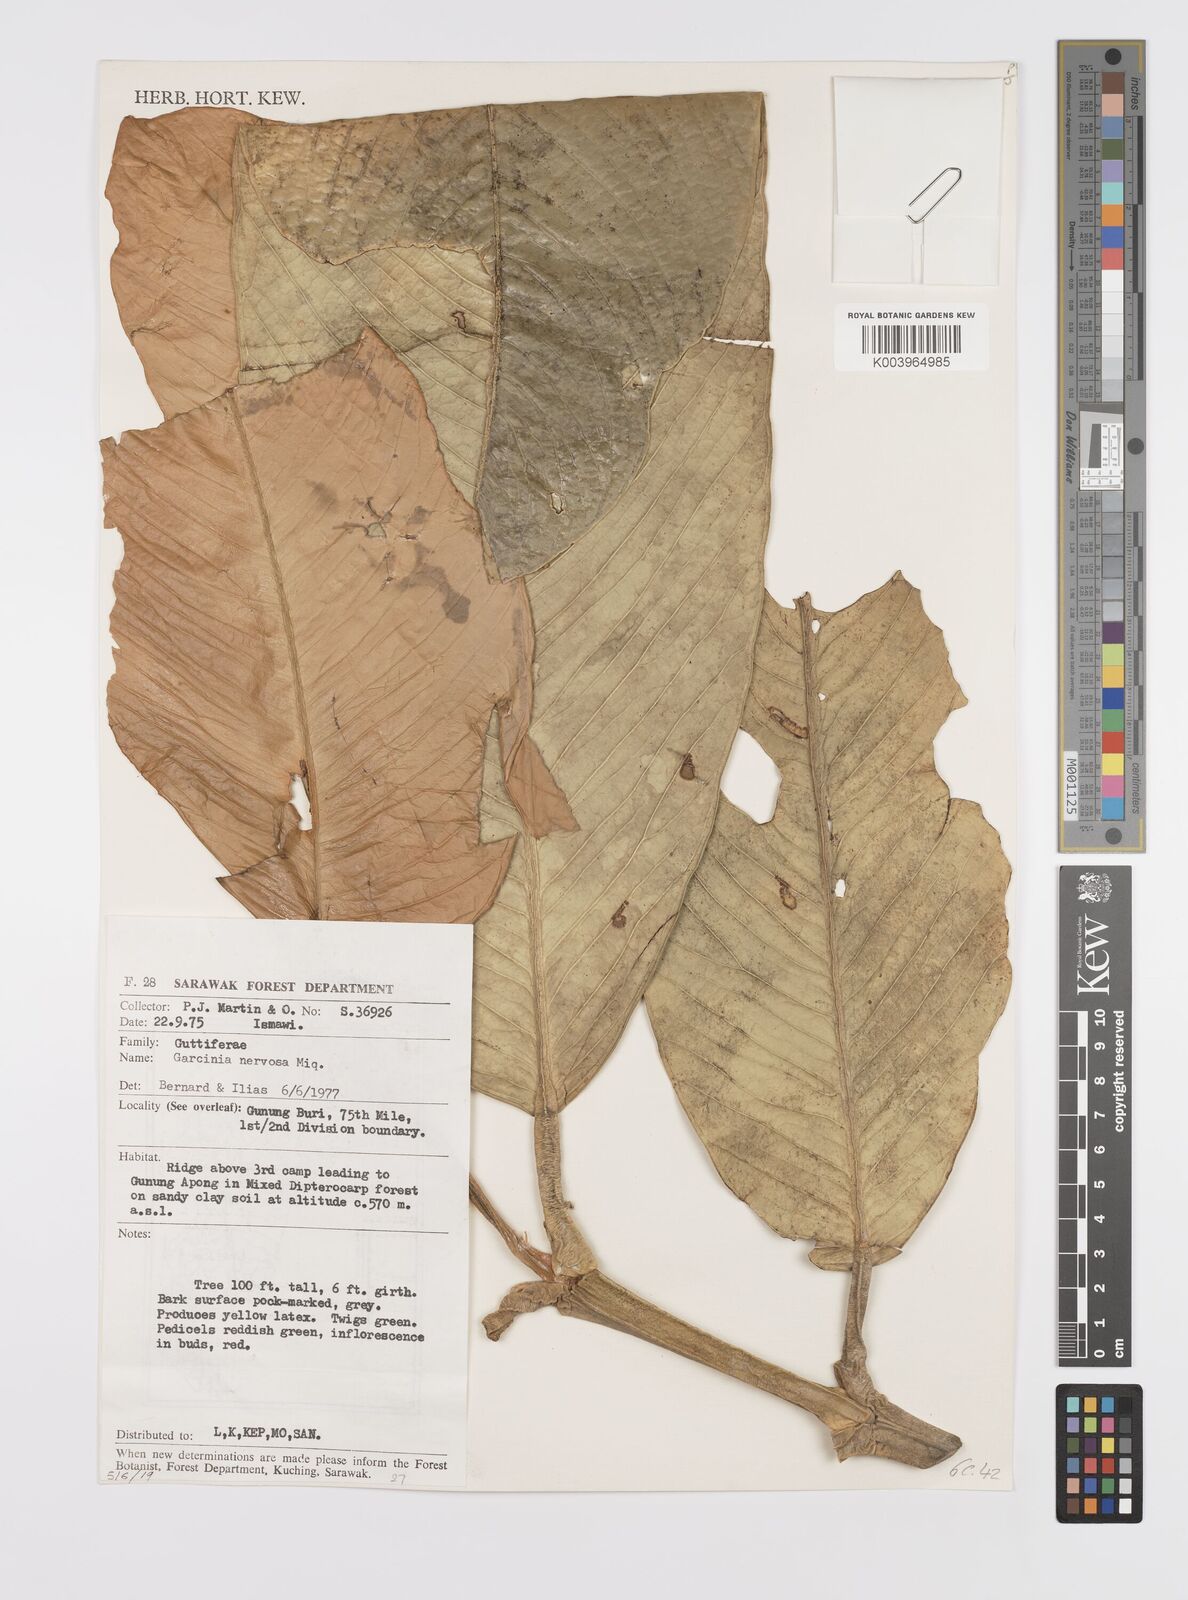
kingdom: Plantae
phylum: Tracheophyta
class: Magnoliopsida
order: Malpighiales
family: Clusiaceae
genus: Garcinia
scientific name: Garcinia nervosa
